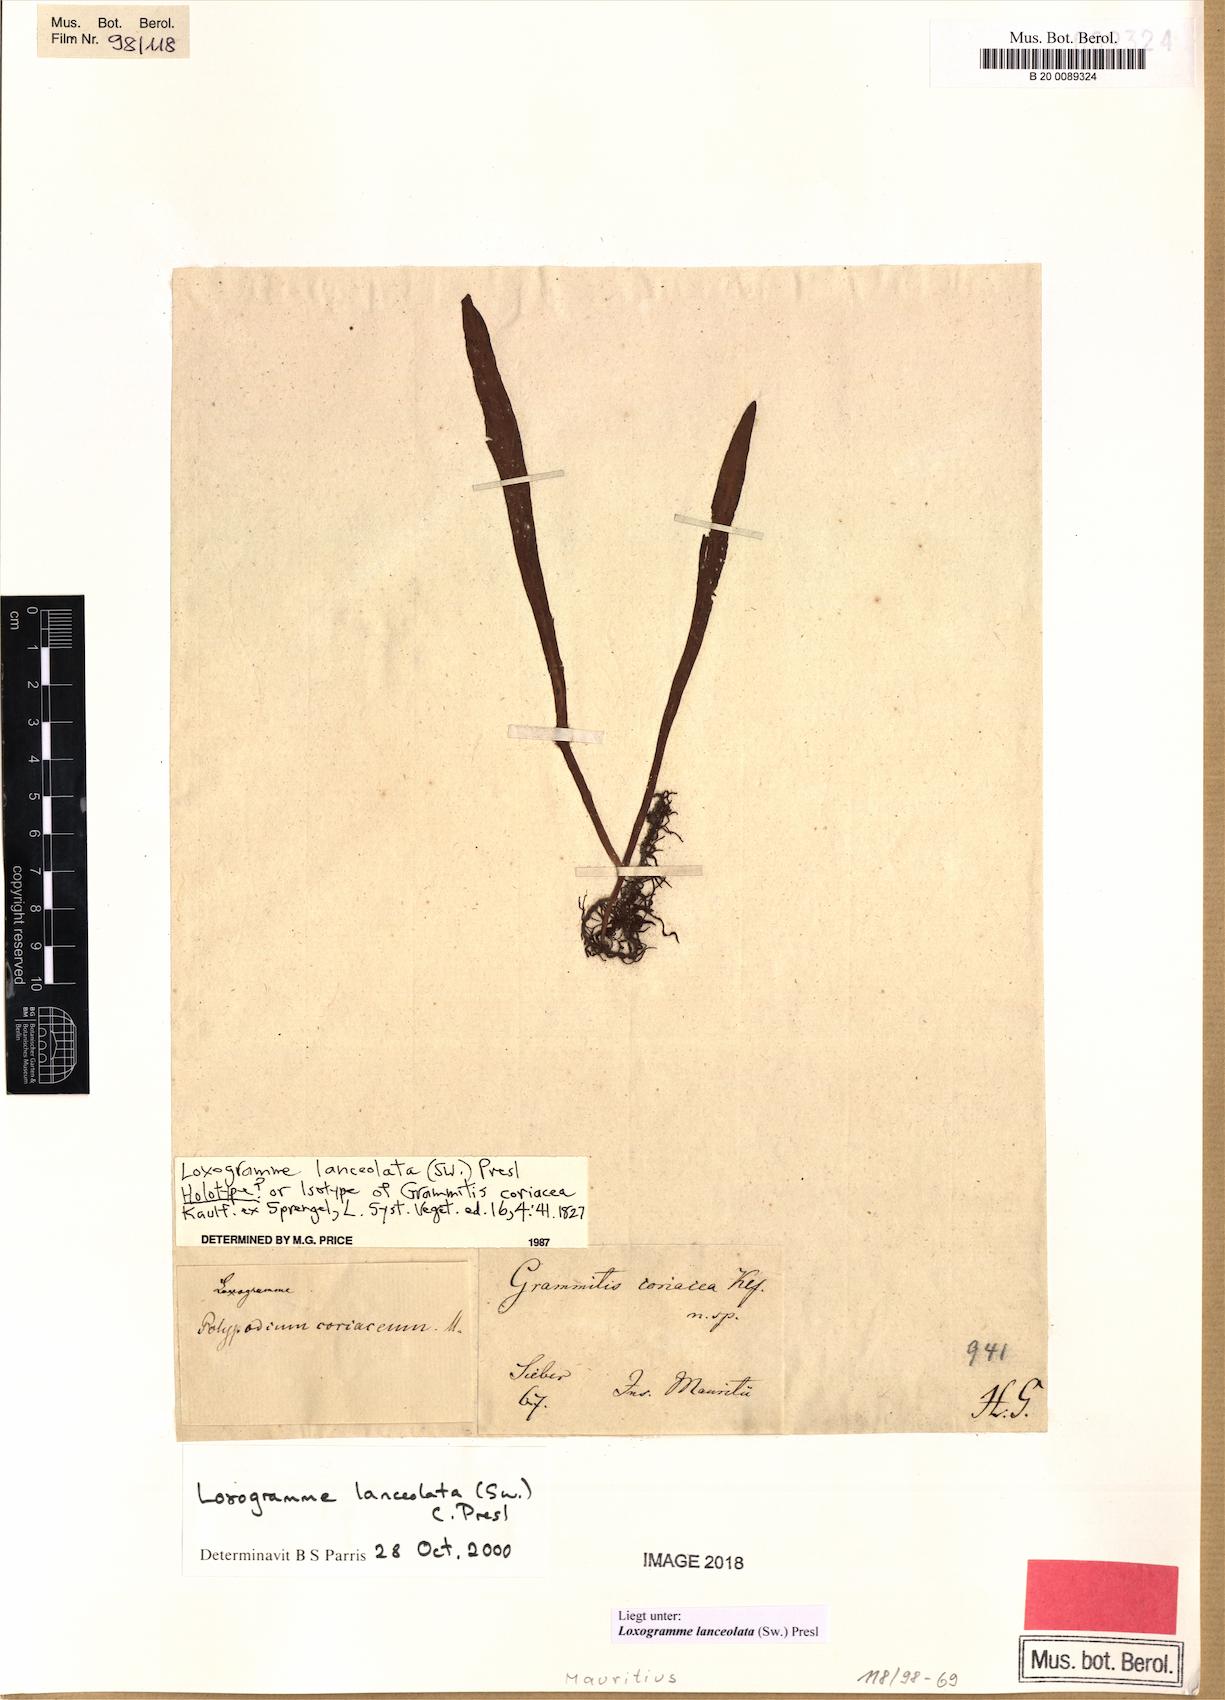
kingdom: Plantae
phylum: Tracheophyta
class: Polypodiopsida
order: Polypodiales
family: Polypodiaceae
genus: Loxogramme
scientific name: Loxogramme lanceolata
